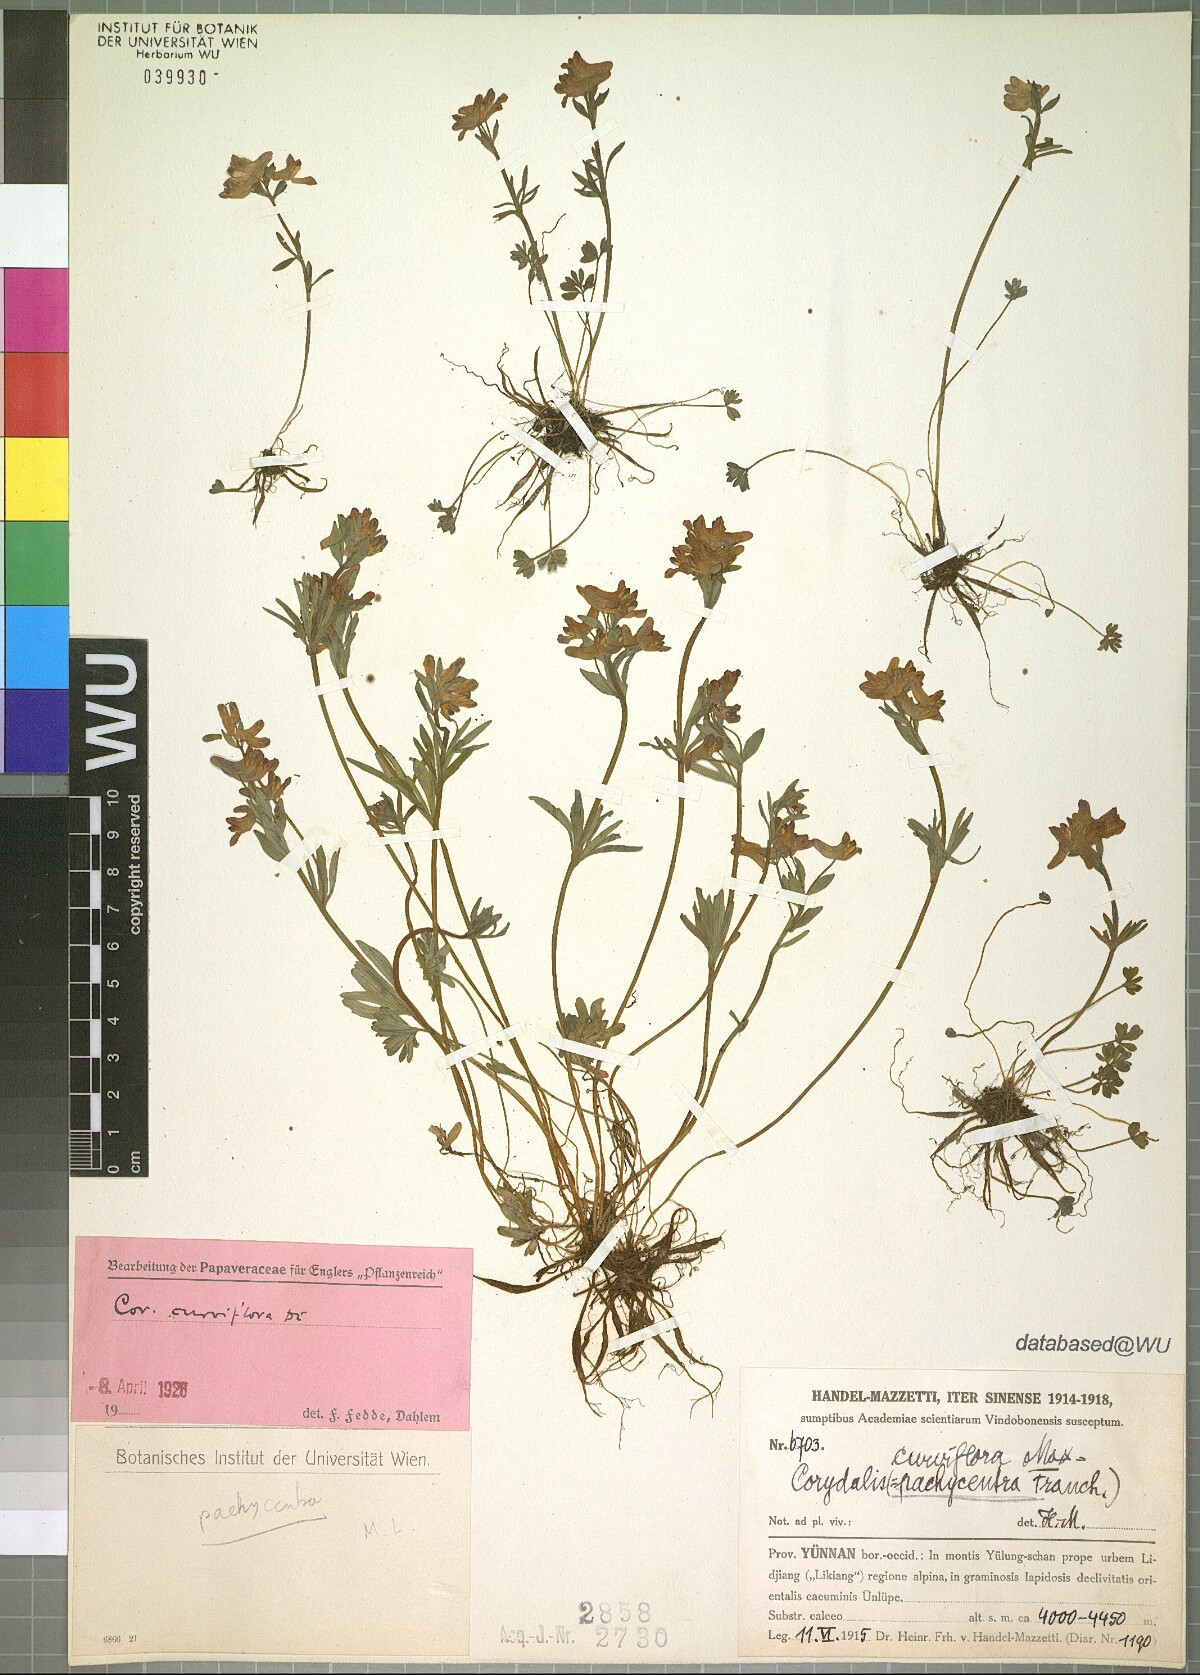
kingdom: Plantae
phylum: Tracheophyta
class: Magnoliopsida
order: Ranunculales
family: Papaveraceae
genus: Corydalis
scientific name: Corydalis pachycentra
